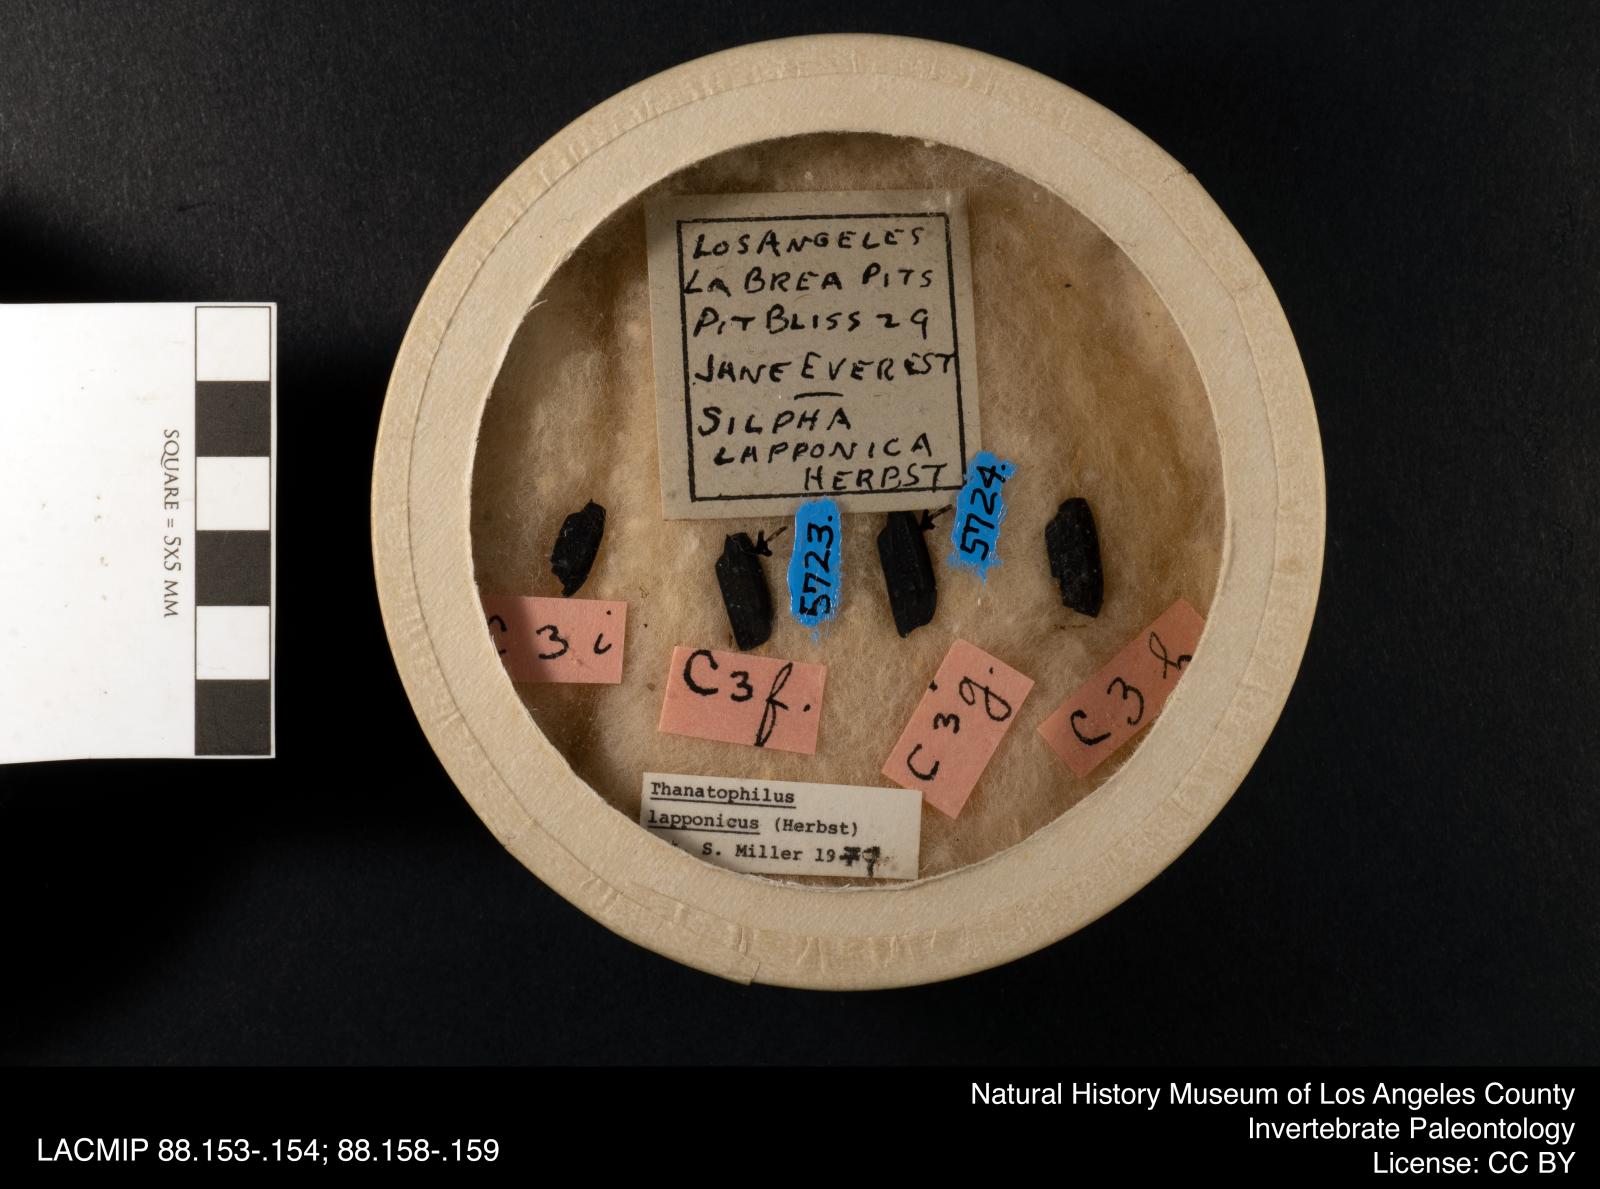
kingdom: Animalia
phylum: Arthropoda
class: Insecta
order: Coleoptera
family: Staphylinidae
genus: Thanatophilus
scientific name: Thanatophilus lapponicus
